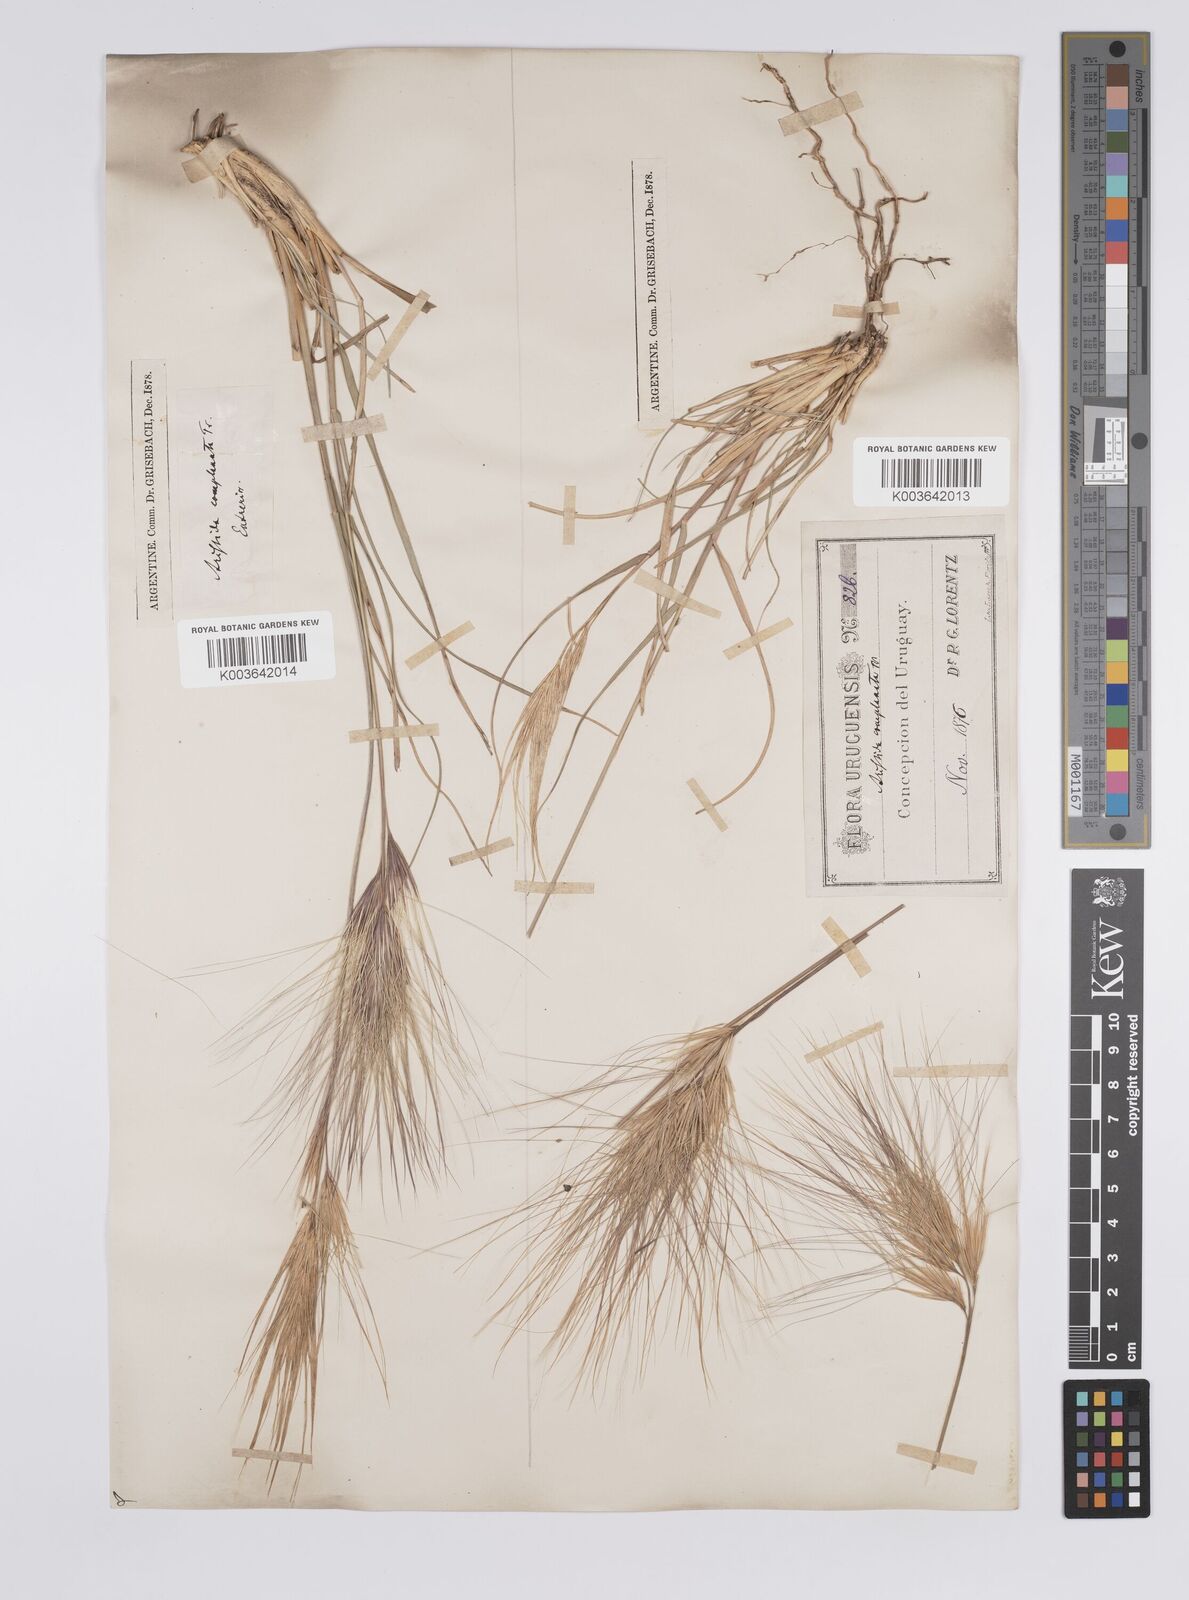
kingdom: Plantae
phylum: Tracheophyta
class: Liliopsida
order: Poales
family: Poaceae
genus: Aristida
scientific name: Aristida murina
